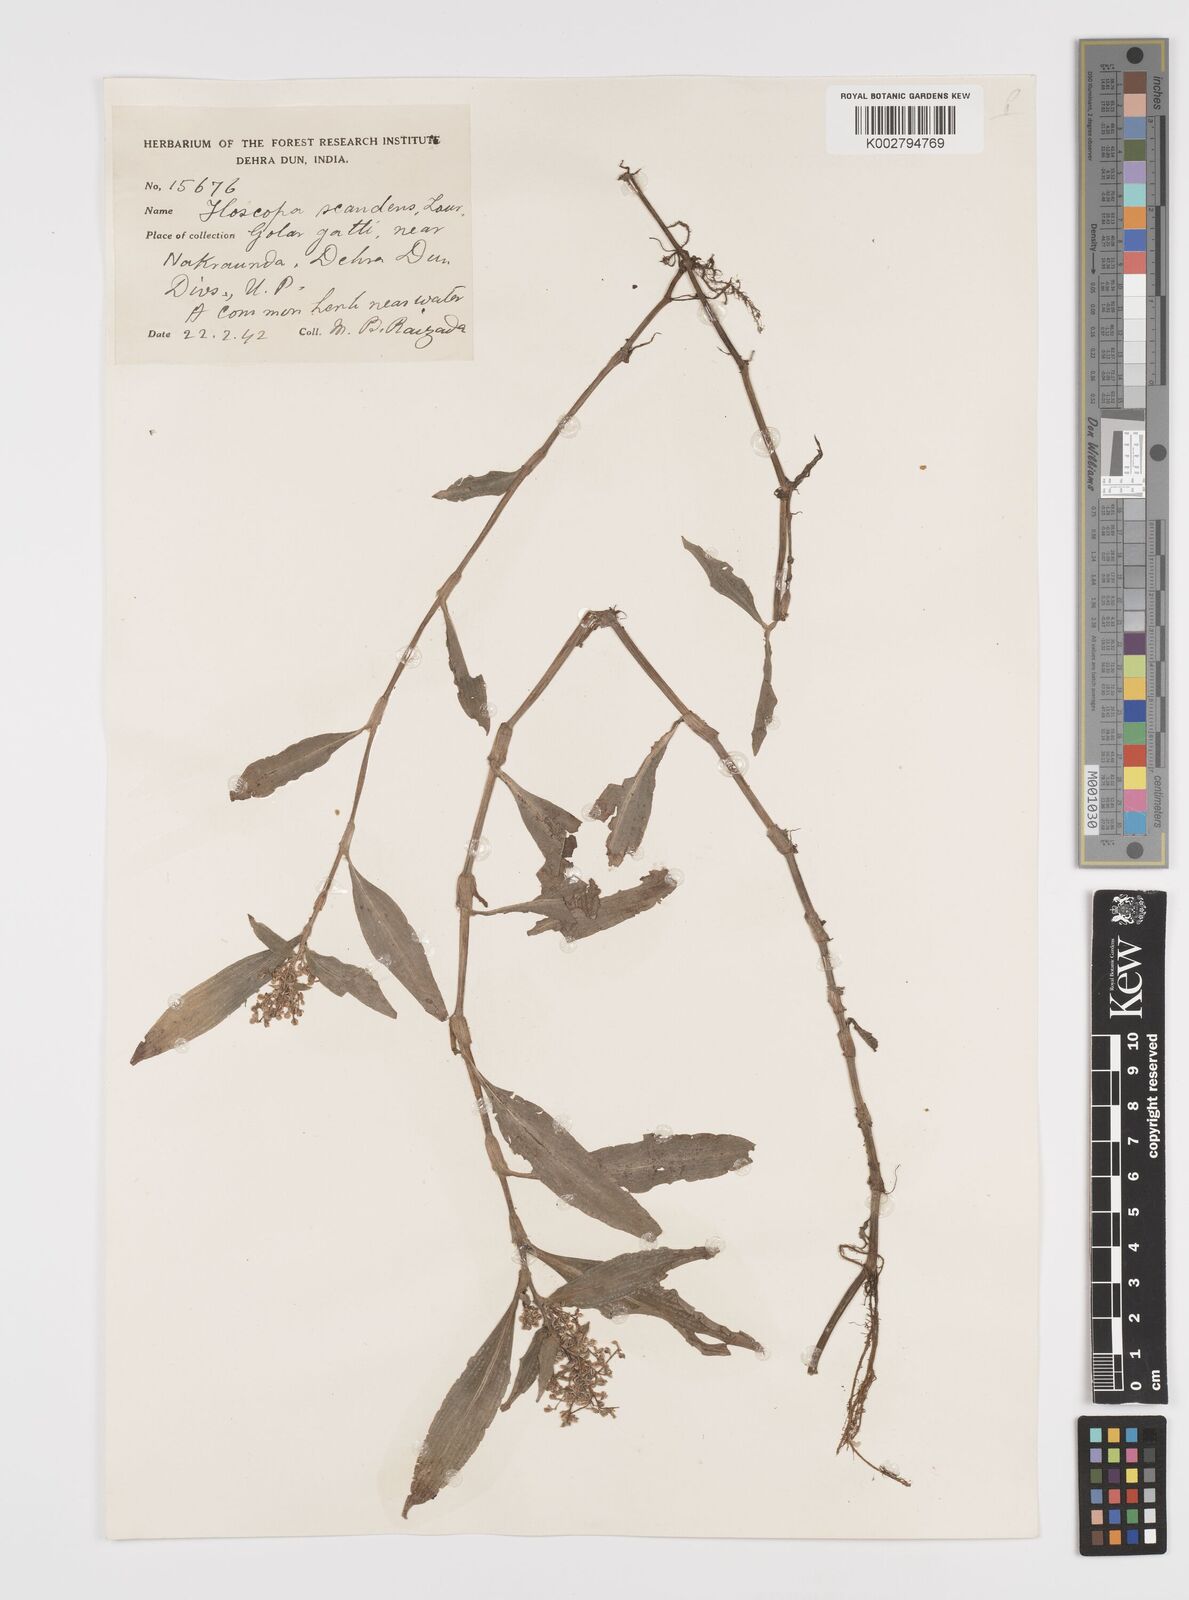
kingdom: Plantae
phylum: Tracheophyta
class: Liliopsida
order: Commelinales
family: Commelinaceae
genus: Floscopa
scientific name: Floscopa scandens
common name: Climbing flower cup
